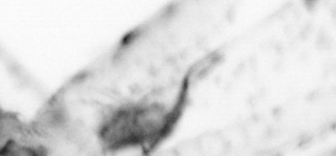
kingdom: Animalia
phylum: Chaetognatha
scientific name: Chaetognatha
